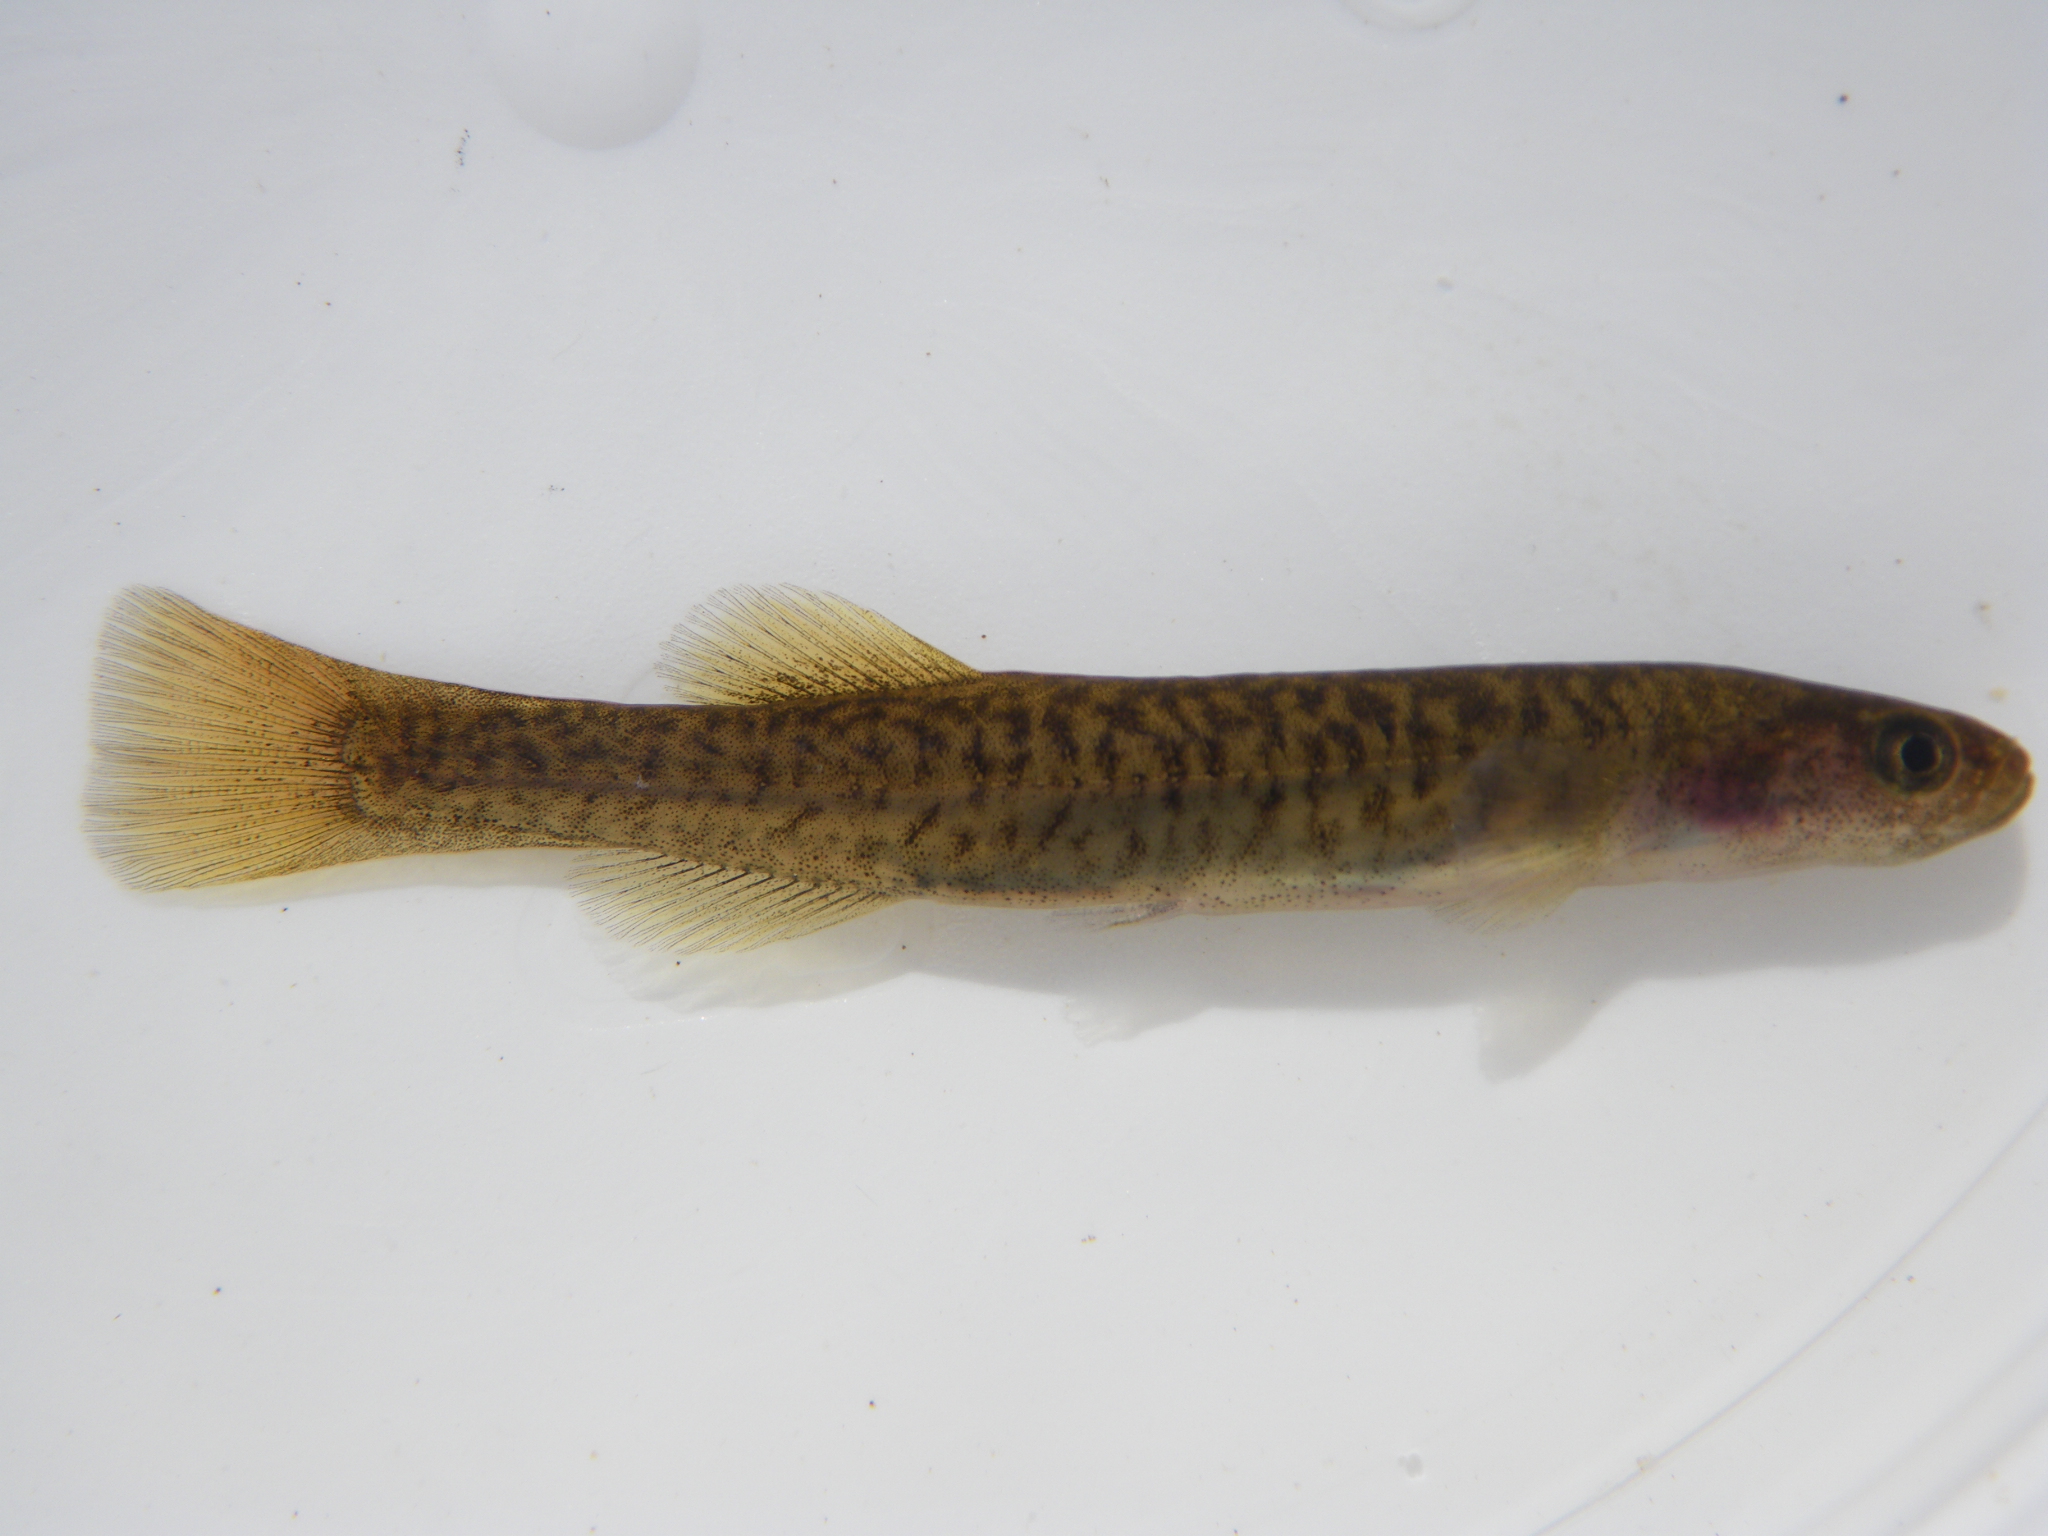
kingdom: Animalia
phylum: Chordata
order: Osmeriformes
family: Galaxiidae
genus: Galaxias
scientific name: Galaxias
